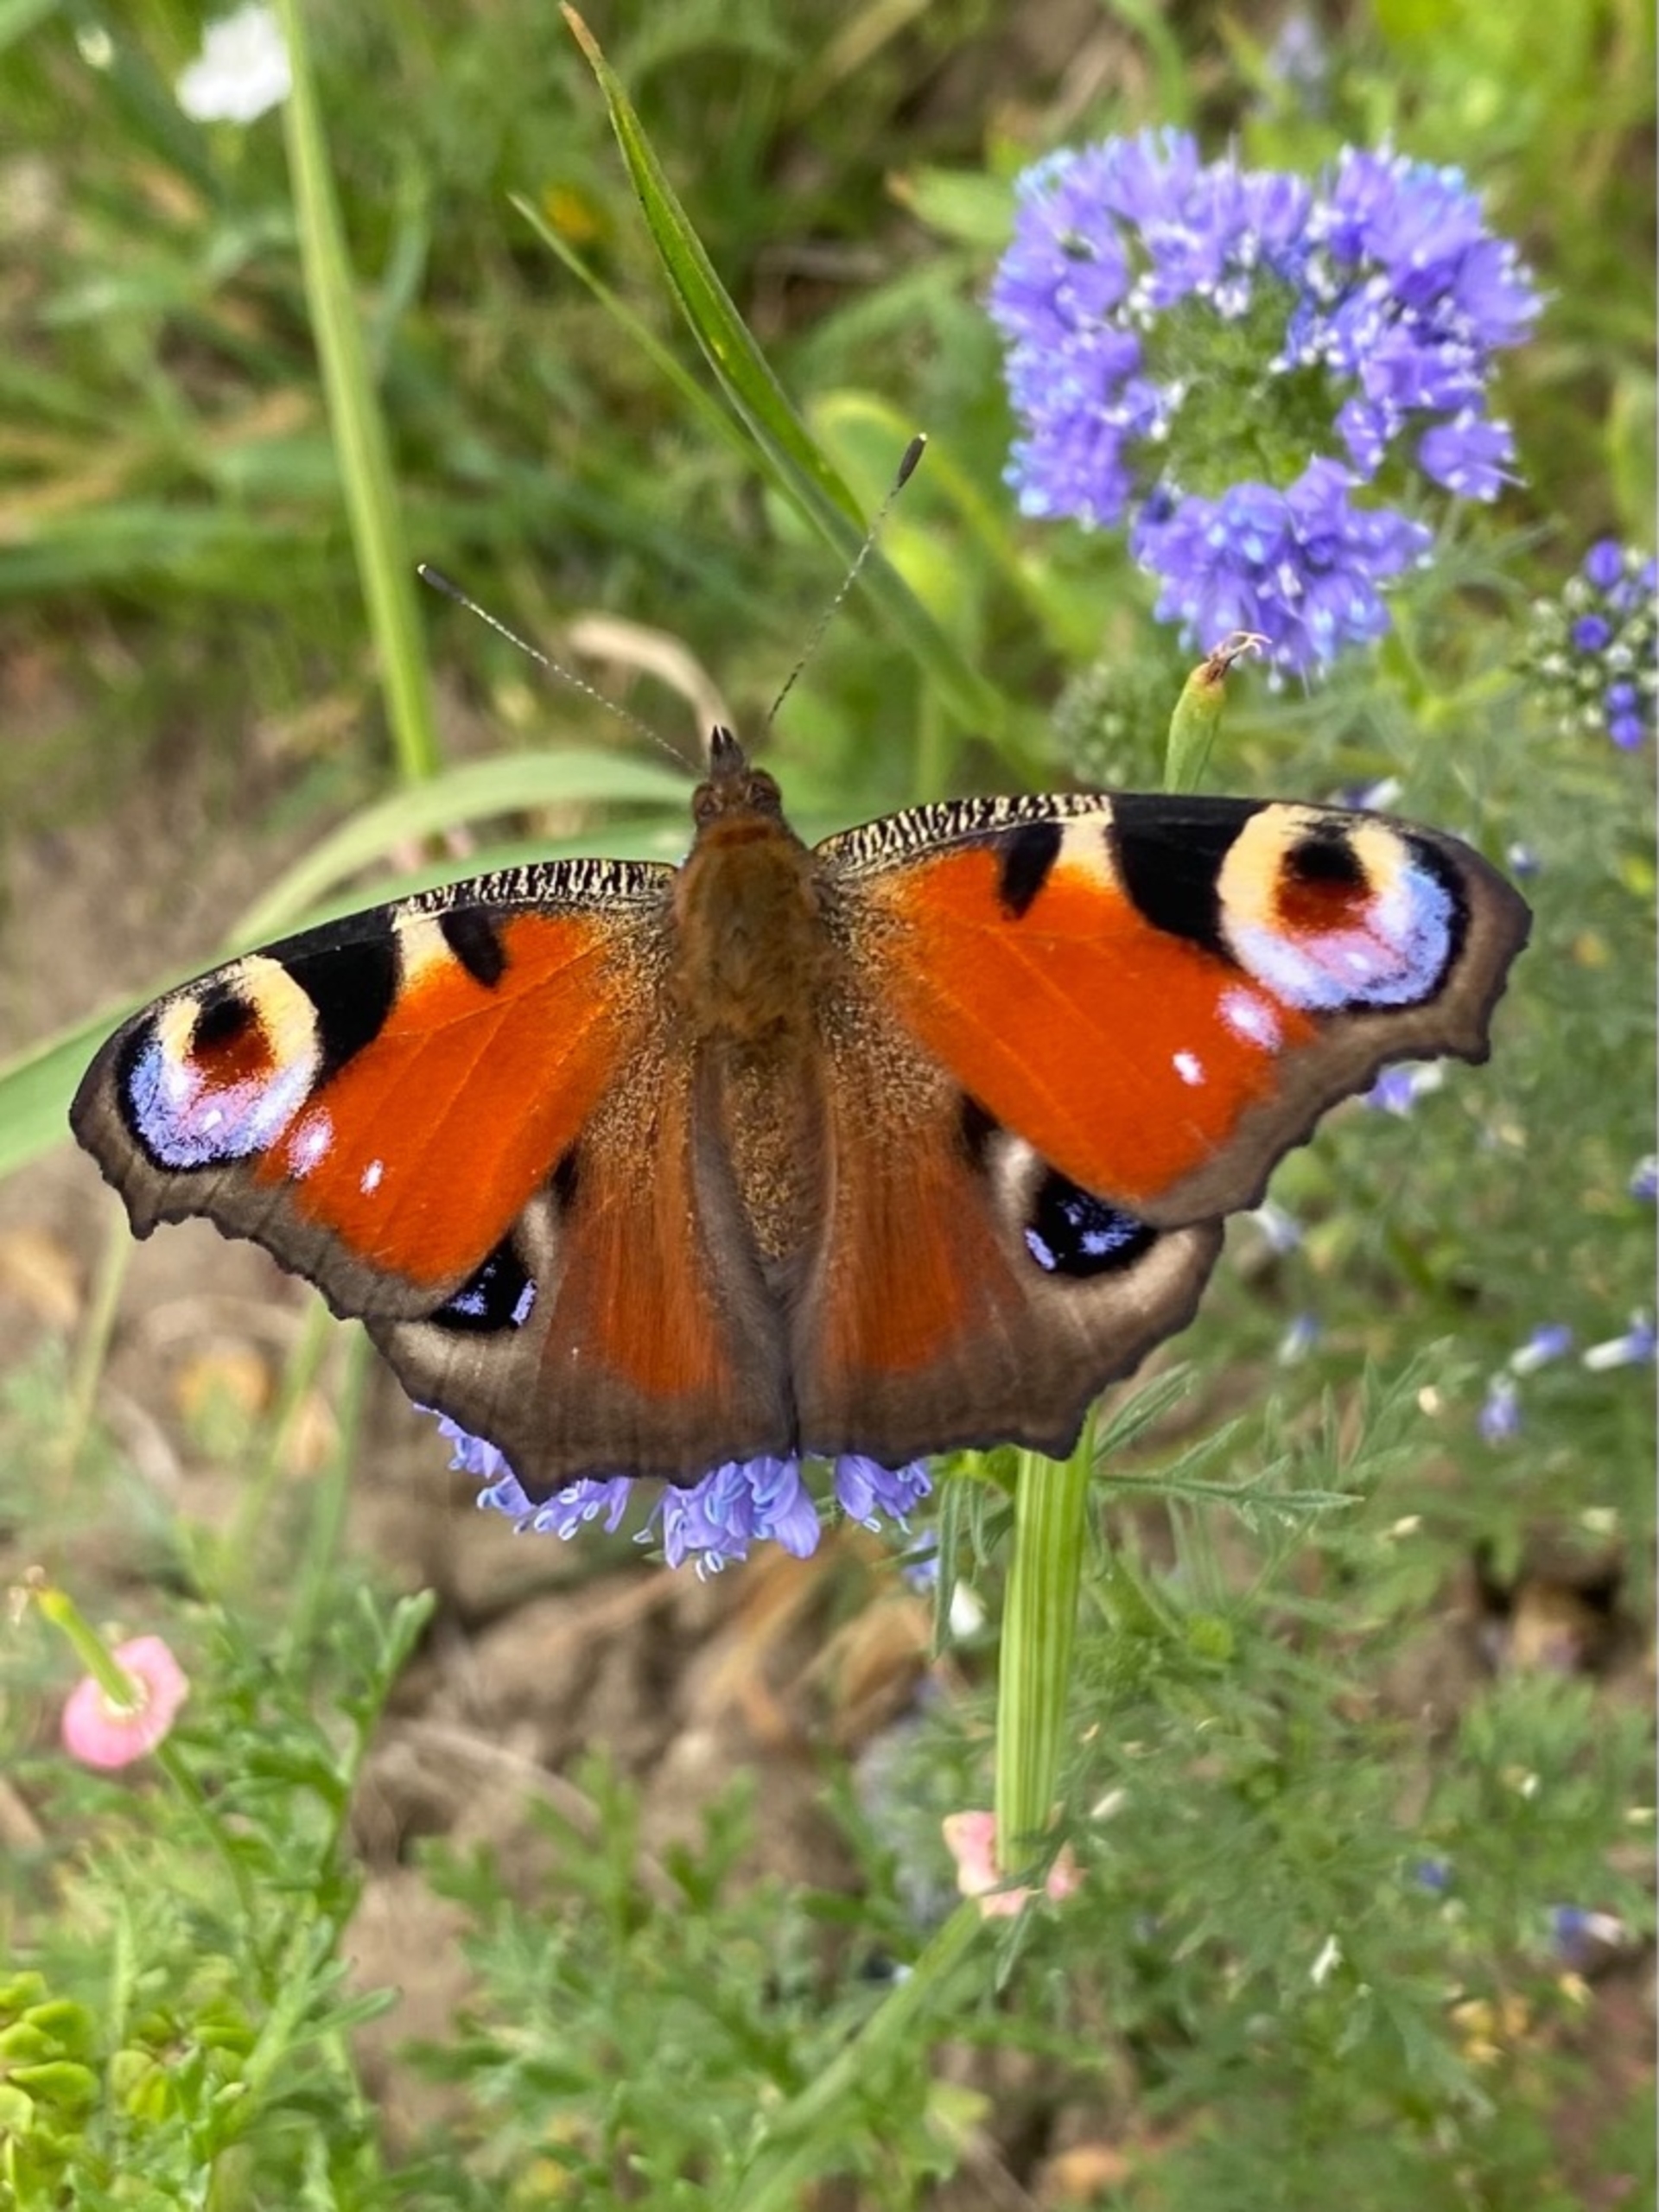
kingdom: Animalia
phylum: Arthropoda
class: Insecta
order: Lepidoptera
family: Nymphalidae
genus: Aglais
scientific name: Aglais io
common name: Dagpåfugleøje
